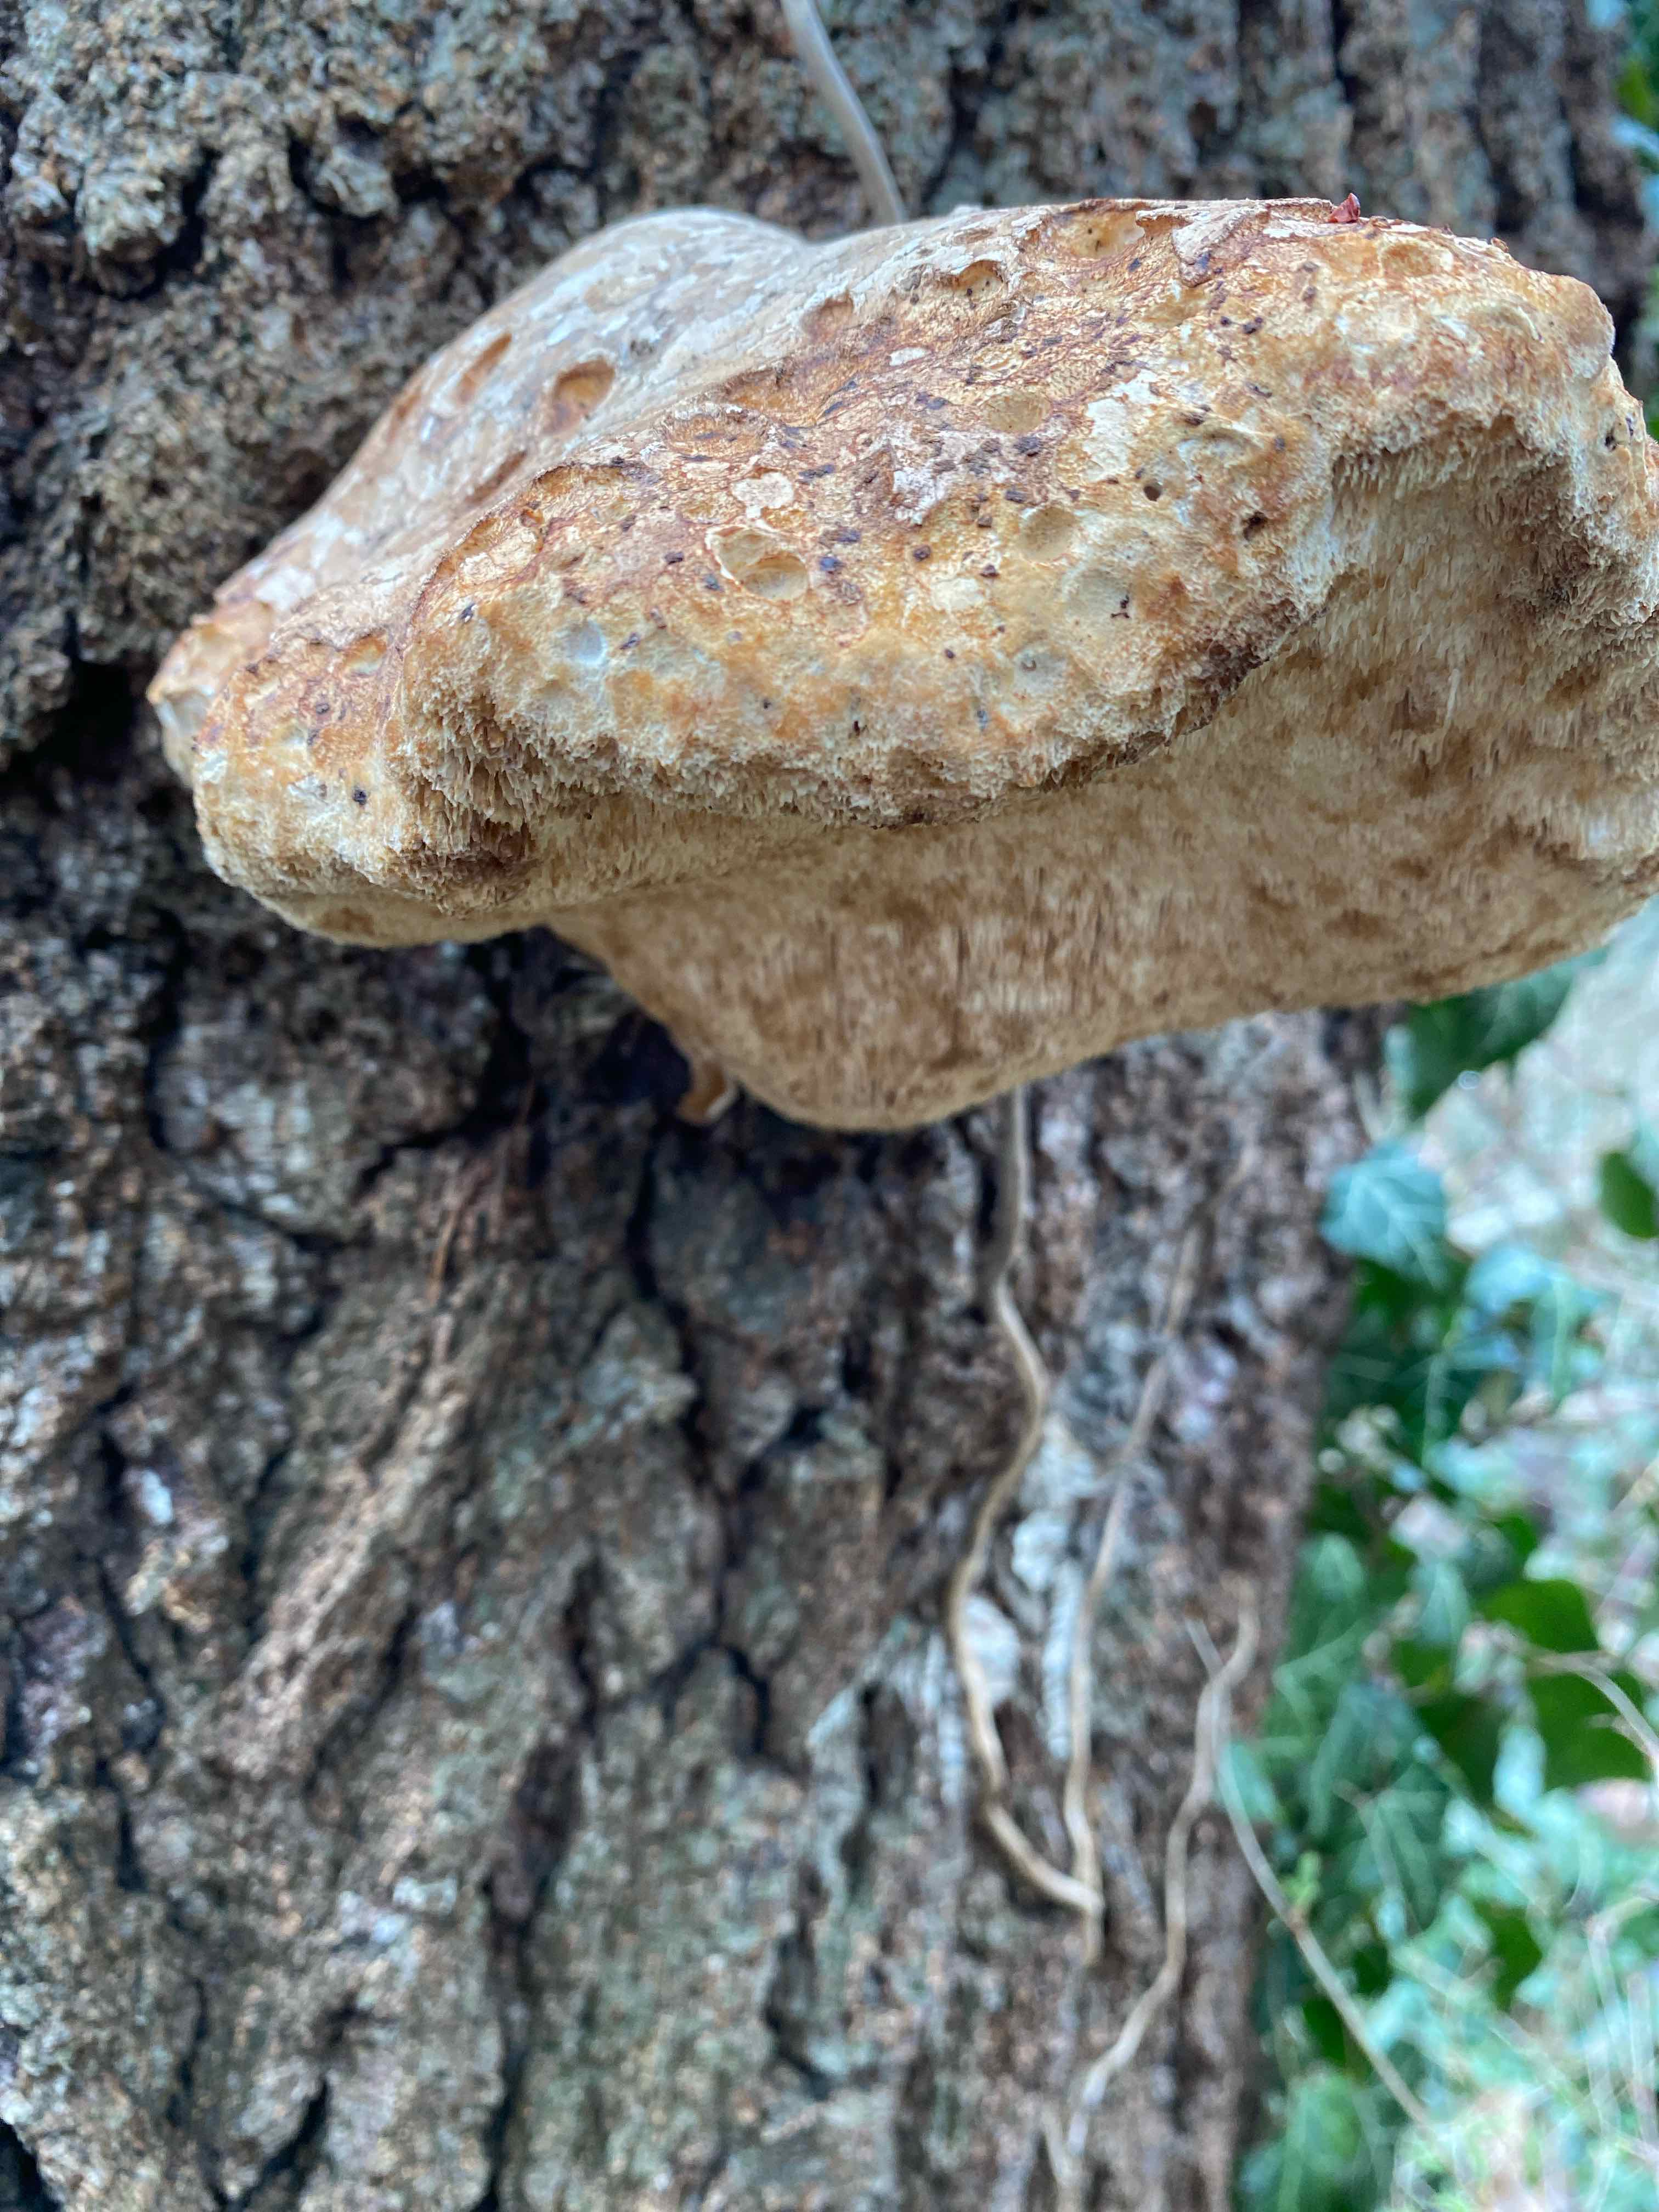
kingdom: Fungi
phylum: Basidiomycota
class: Agaricomycetes
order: Polyporales
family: Fomitopsidaceae
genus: Fomitopsis
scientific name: Fomitopsis betulina
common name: birkeporesvamp
